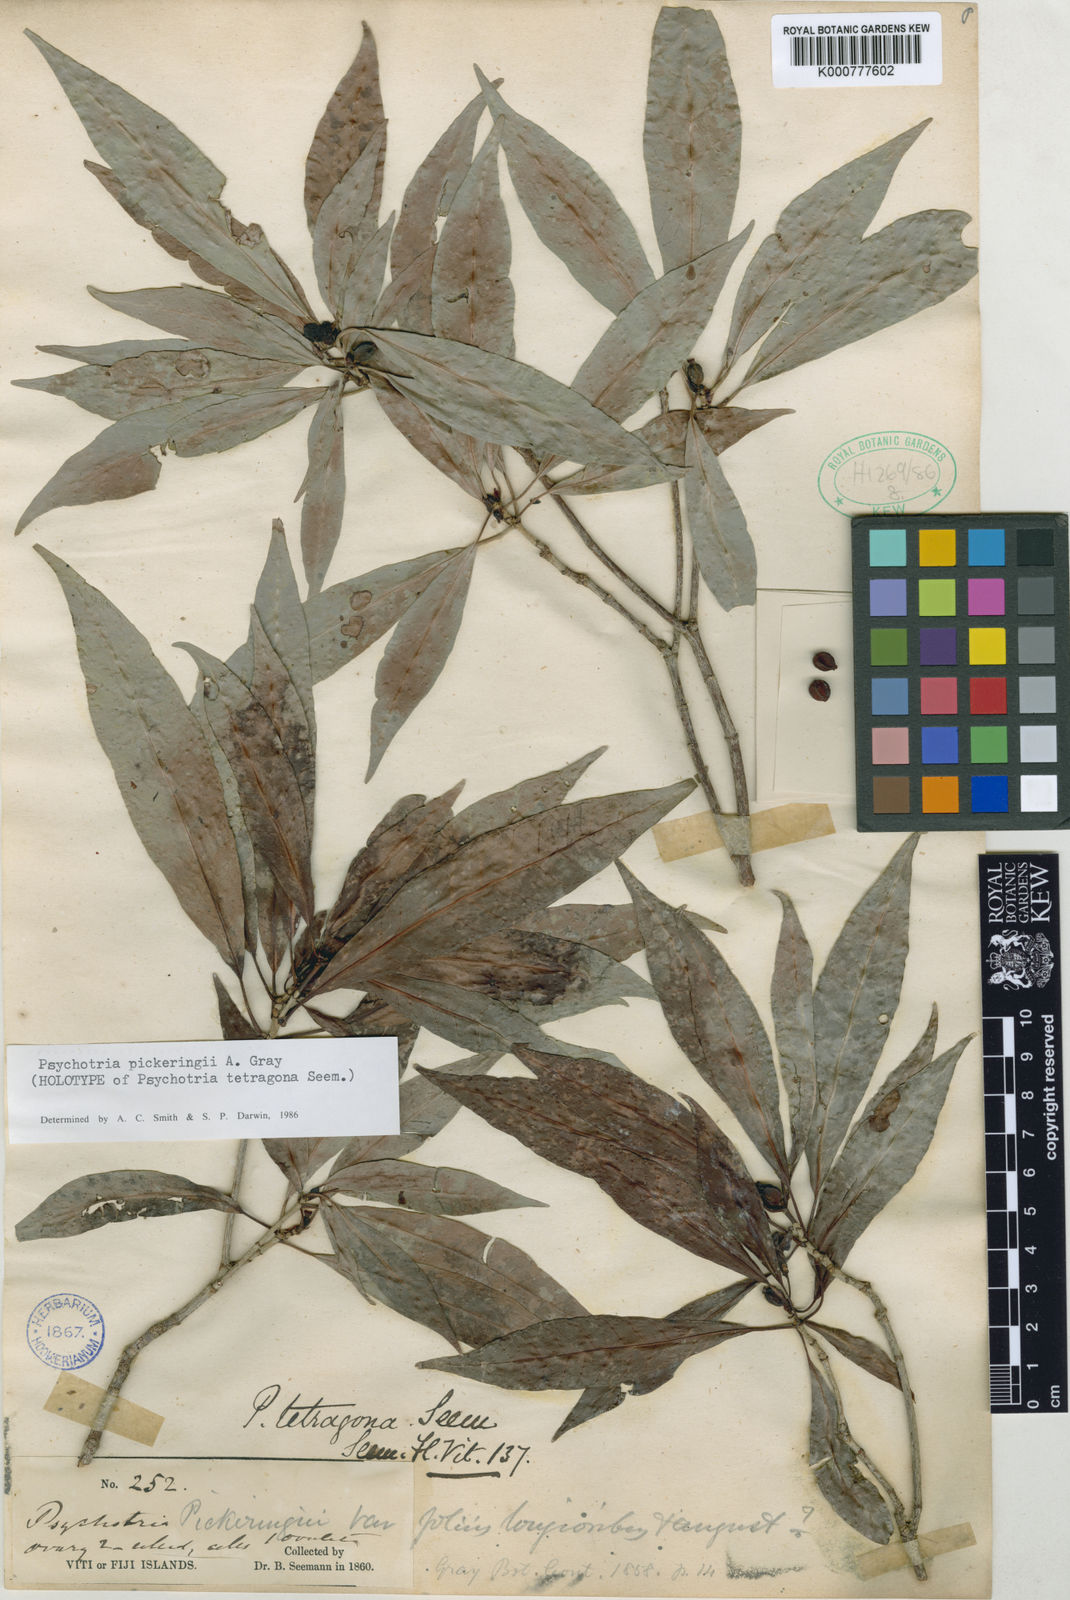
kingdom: Plantae
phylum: Tracheophyta
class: Magnoliopsida
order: Gentianales
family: Rubiaceae
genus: Psychotria
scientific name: Psychotria pickeringii
